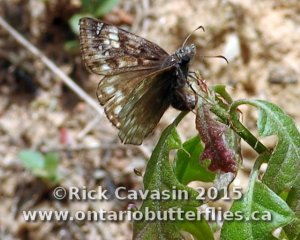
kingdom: Animalia
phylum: Arthropoda
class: Insecta
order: Lepidoptera
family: Hesperiidae
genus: Gesta
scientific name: Gesta
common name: Juvenal's Duskywing
